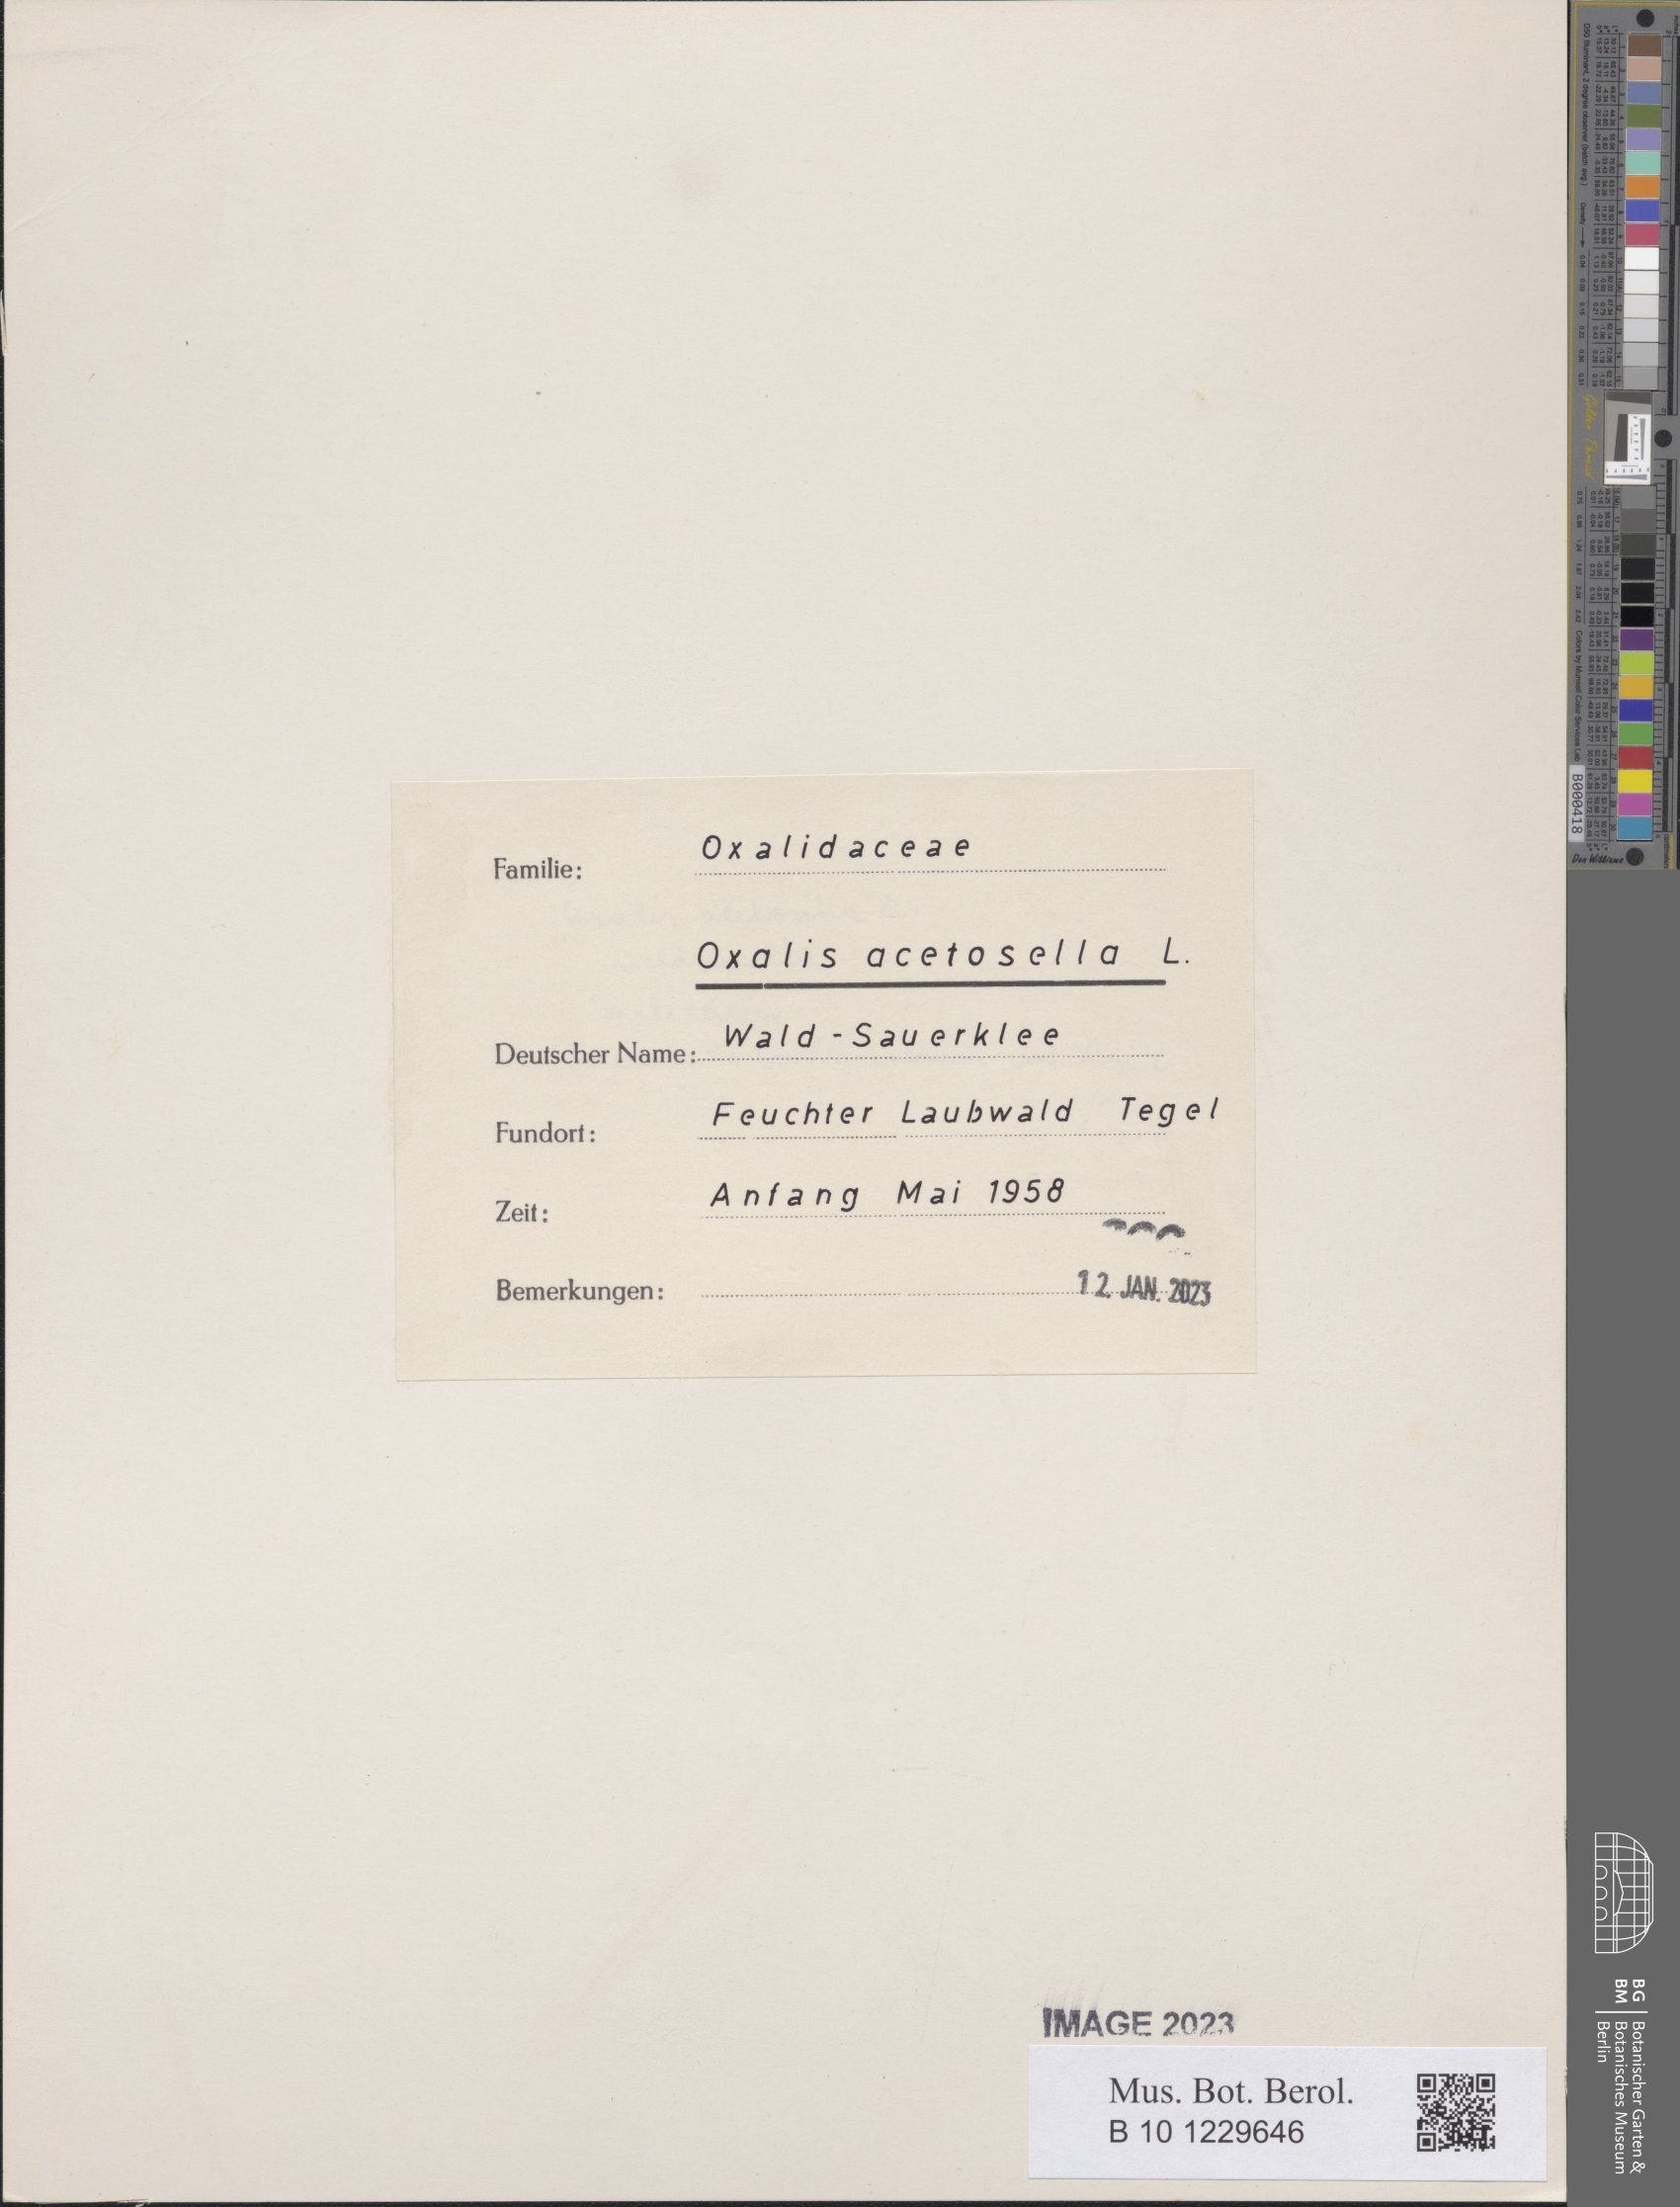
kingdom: Plantae
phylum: Tracheophyta
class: Magnoliopsida
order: Oxalidales
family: Oxalidaceae
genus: Oxalis
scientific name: Oxalis acetosella
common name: Wood-sorrel
